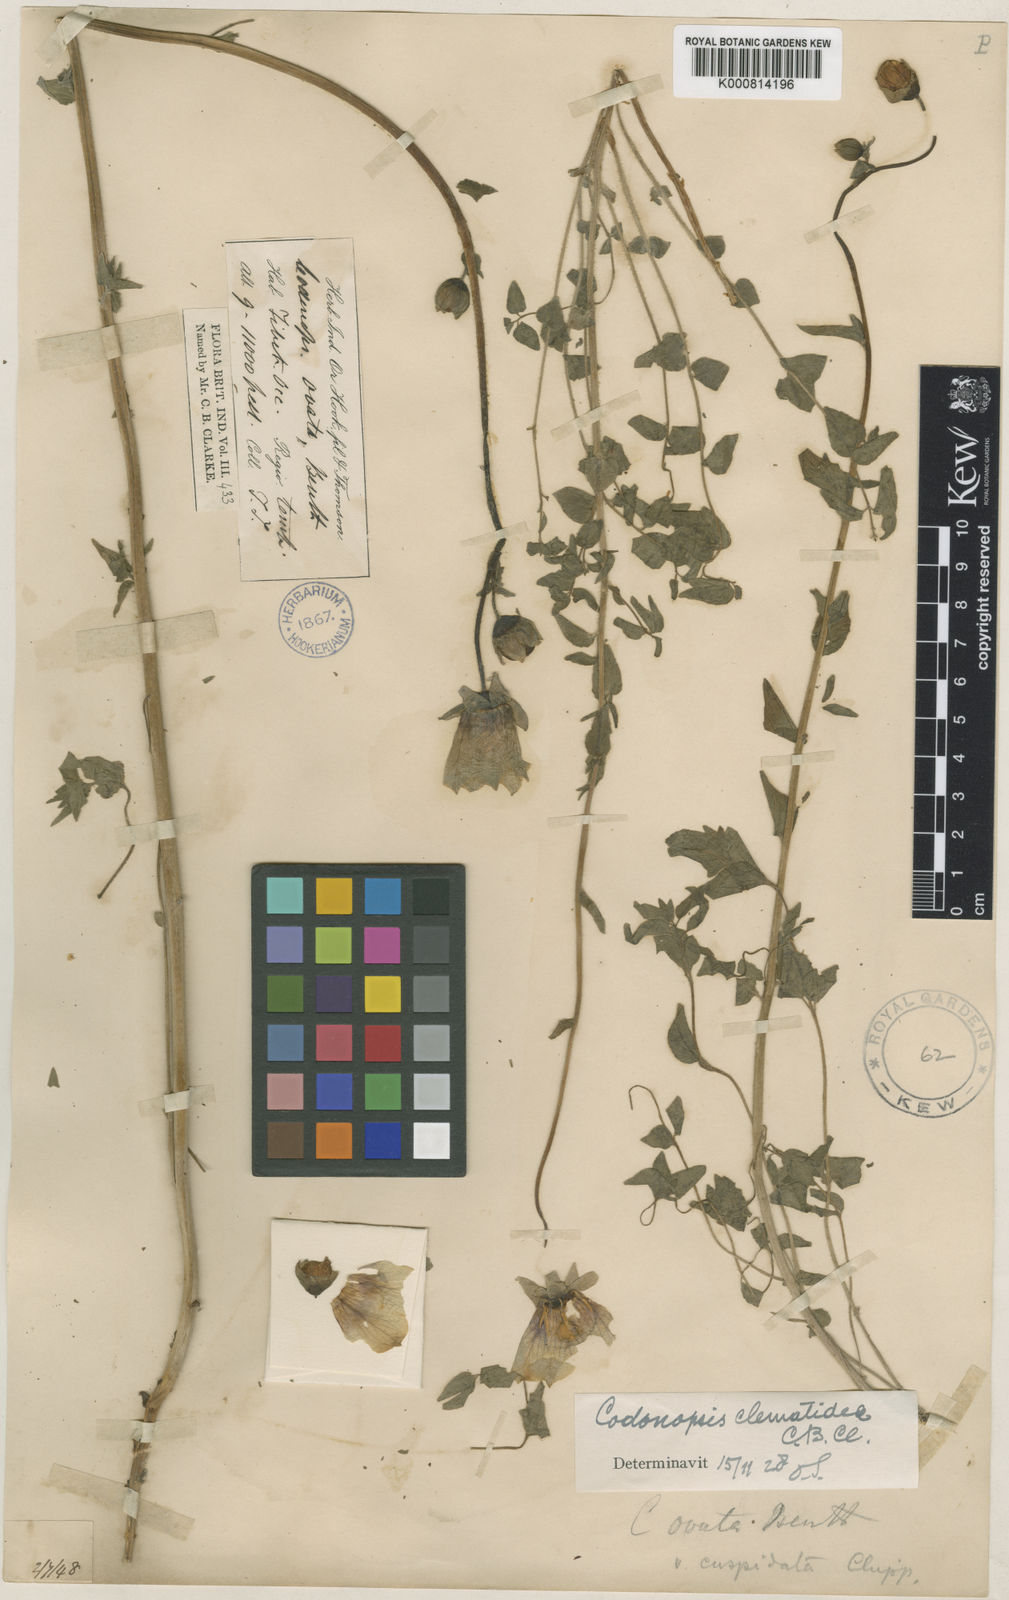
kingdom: Plantae
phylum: Tracheophyta
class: Magnoliopsida
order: Asterales
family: Campanulaceae
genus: Codonopsis
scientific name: Codonopsis clematidea
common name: Bonnet-bellflower
